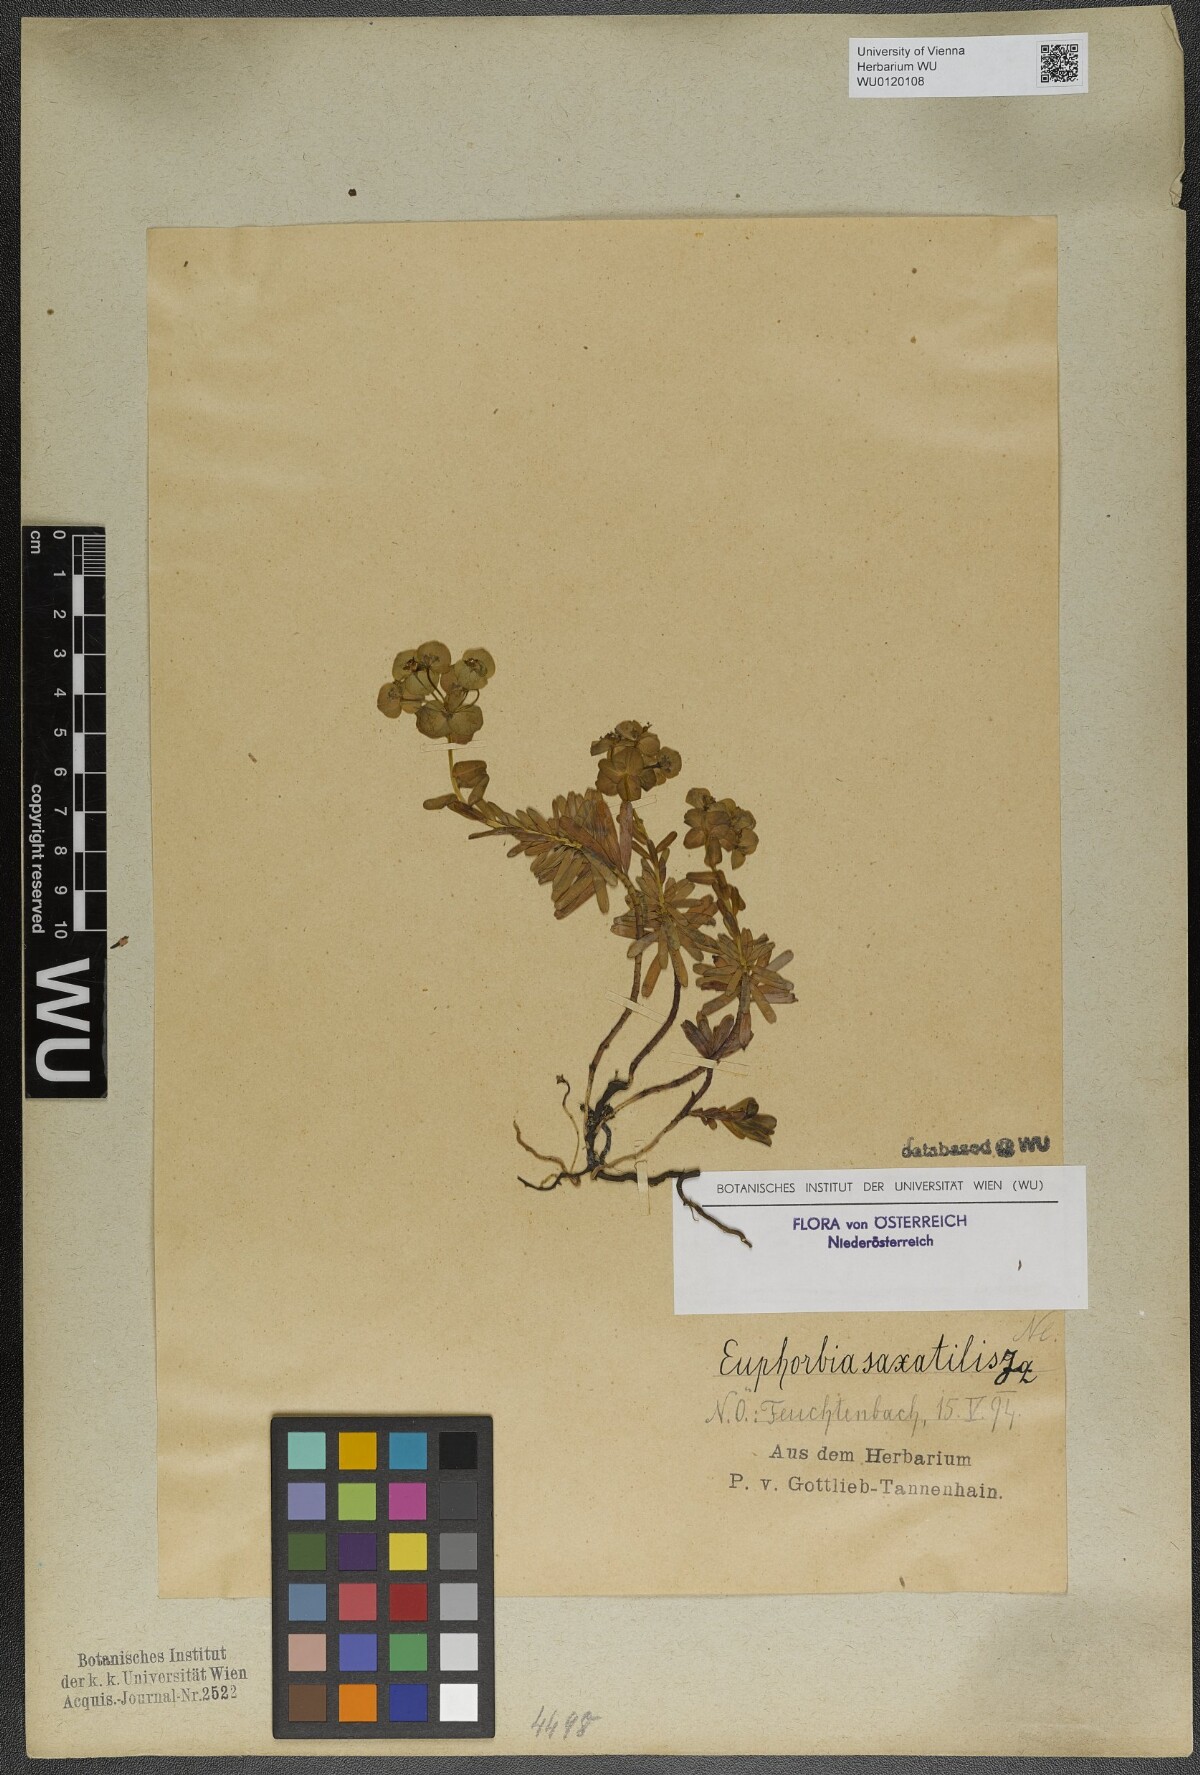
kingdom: Plantae
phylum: Tracheophyta
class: Magnoliopsida
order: Malpighiales
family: Euphorbiaceae
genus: Euphorbia
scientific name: Euphorbia saxatilis
